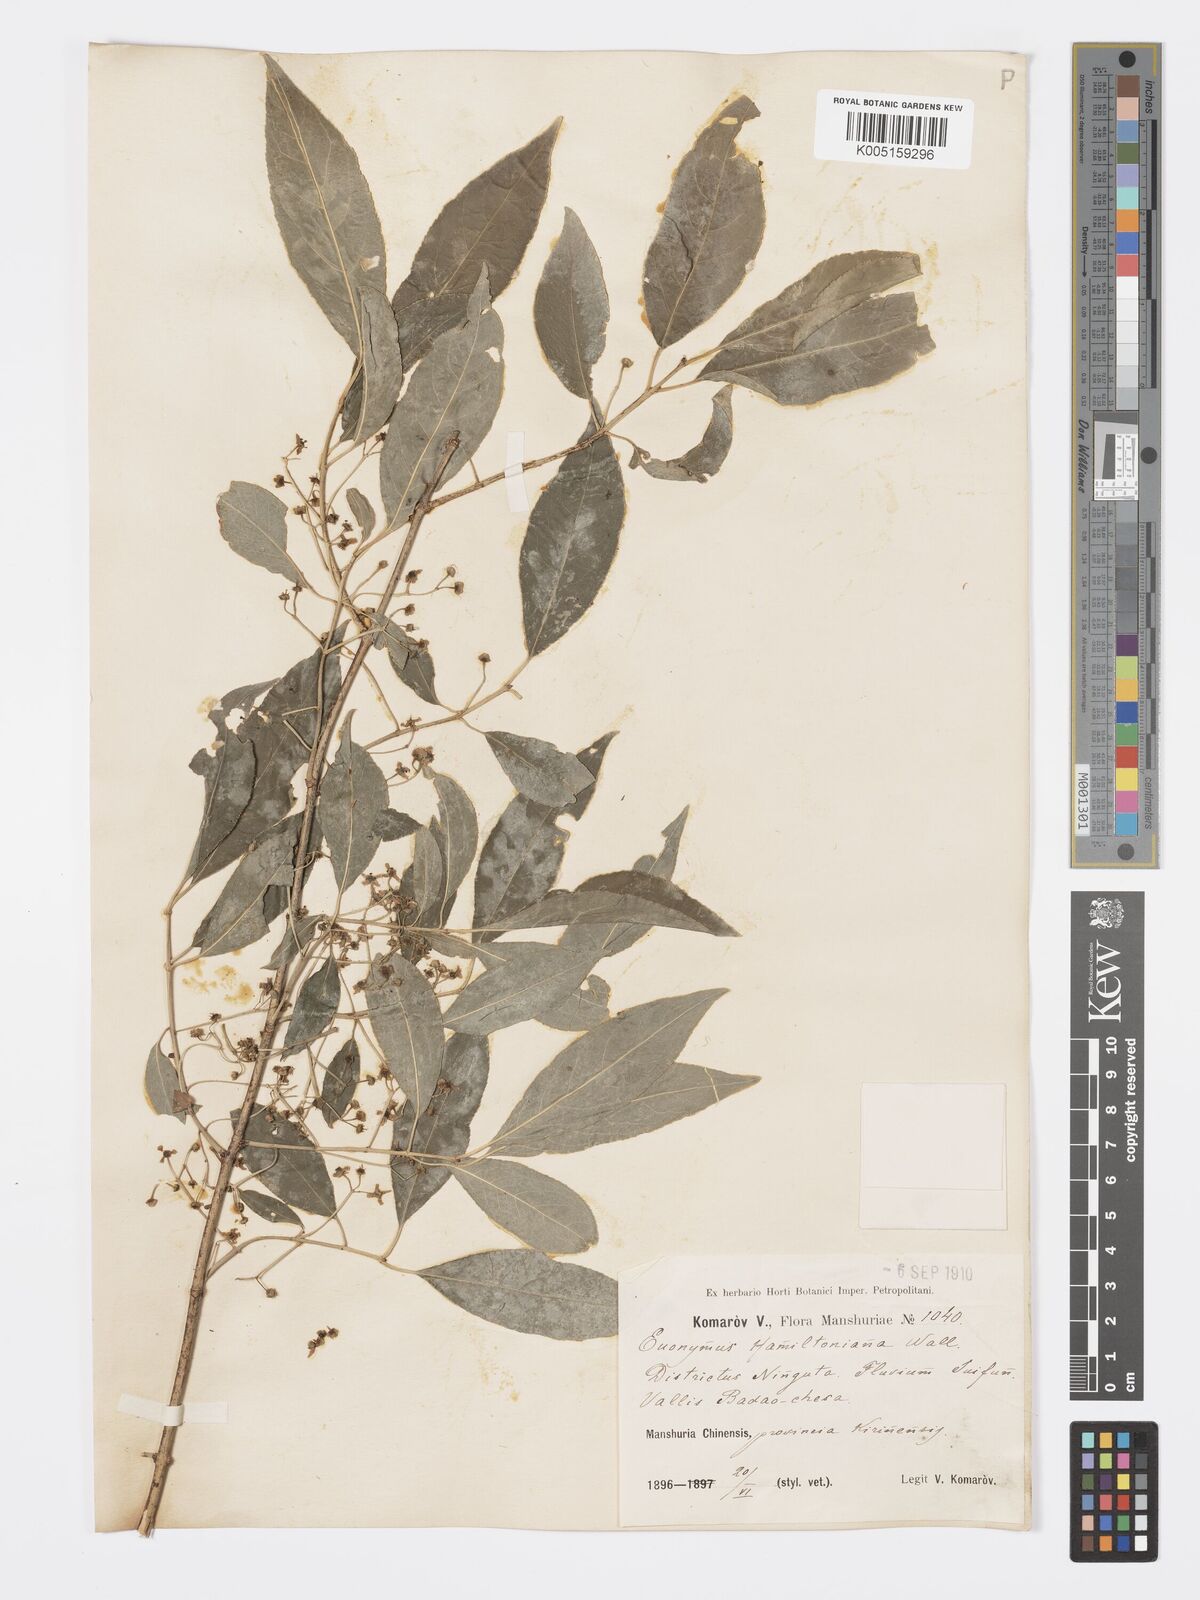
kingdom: Plantae
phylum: Tracheophyta
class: Magnoliopsida
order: Celastrales
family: Celastraceae
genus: Euonymus
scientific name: Euonymus maackii
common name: Hamilton's spindletree
